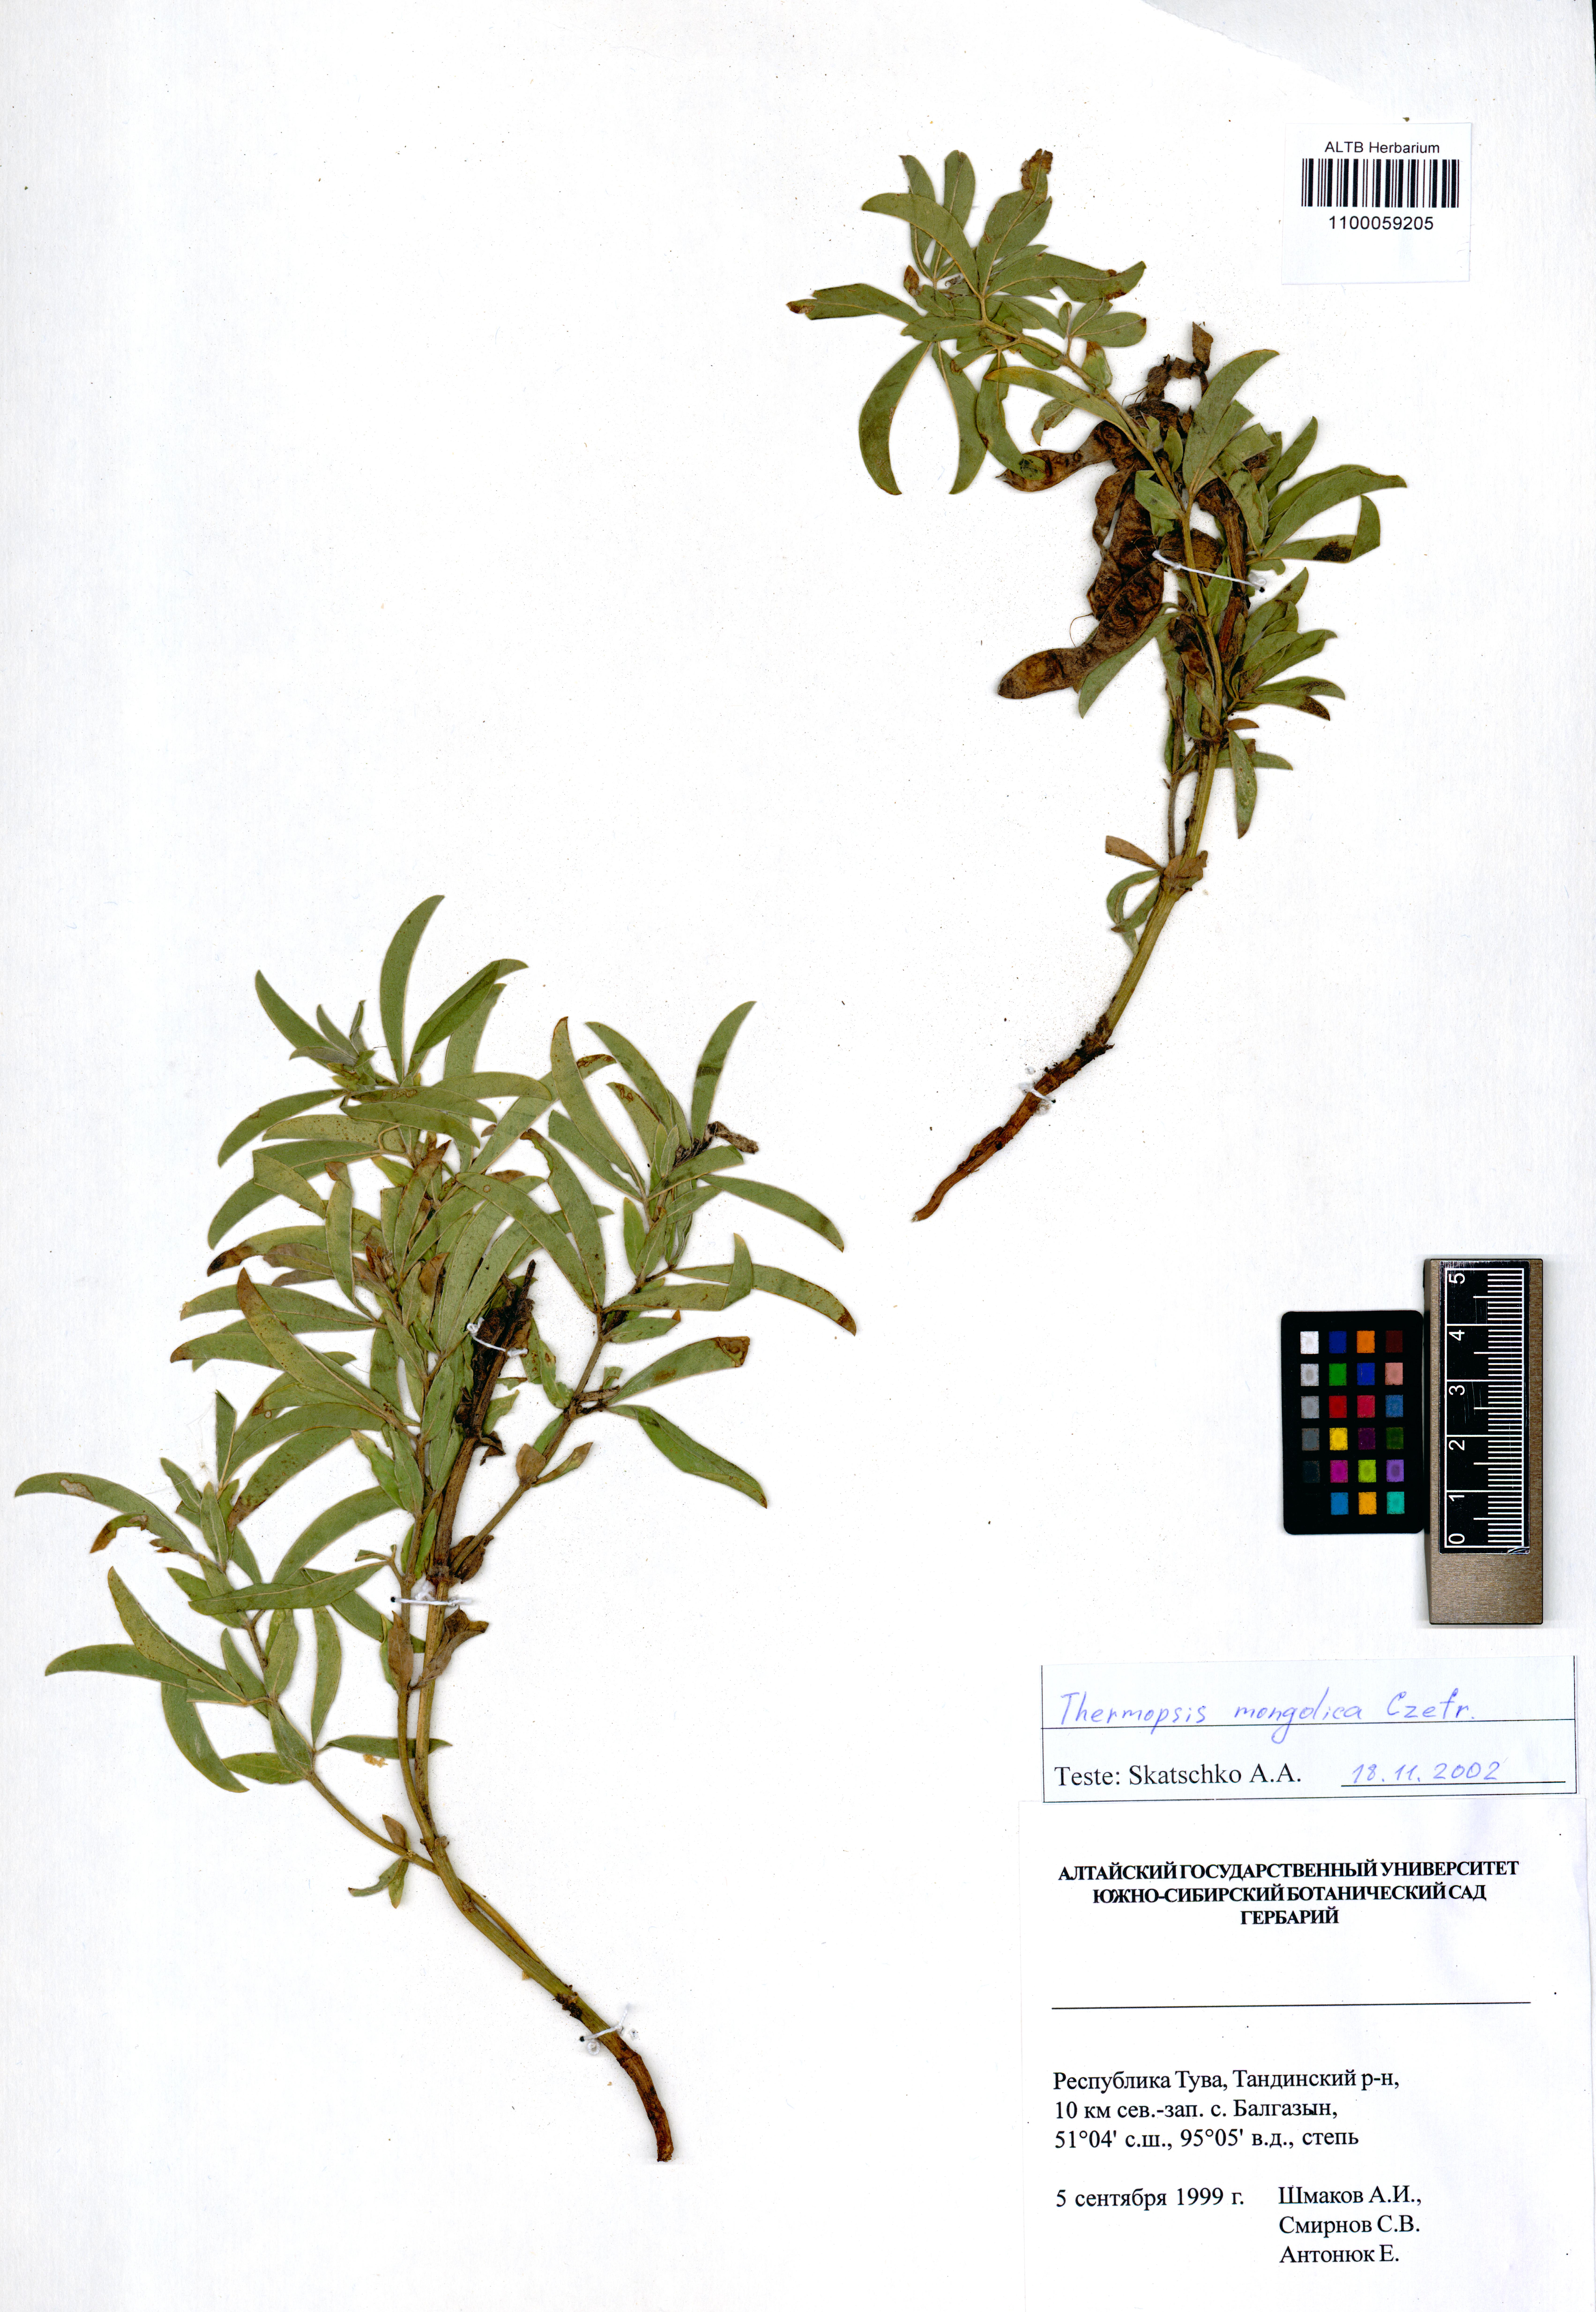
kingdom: Plantae
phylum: Tracheophyta
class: Magnoliopsida
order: Fabales
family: Fabaceae
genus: Thermopsis
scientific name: Thermopsis mongolica
